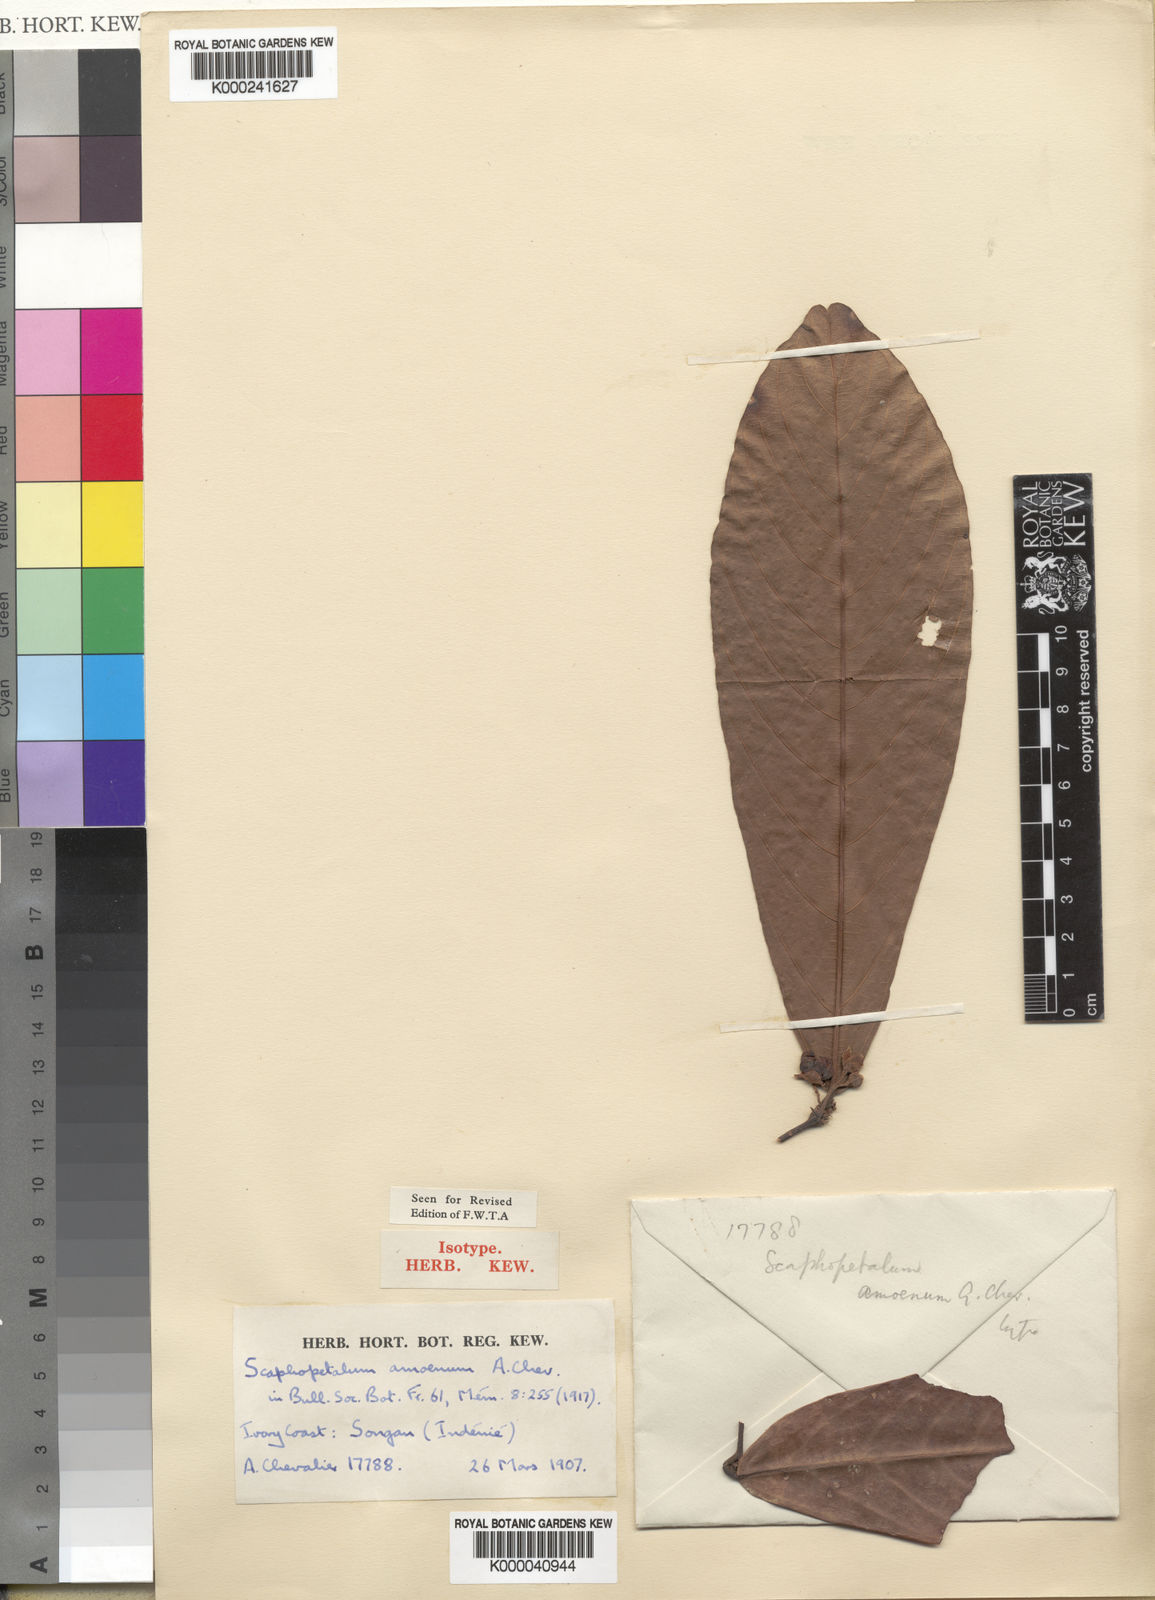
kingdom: Plantae
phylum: Tracheophyta
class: Magnoliopsida
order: Malvales
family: Malvaceae
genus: Grewia
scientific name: Grewia penicillata
